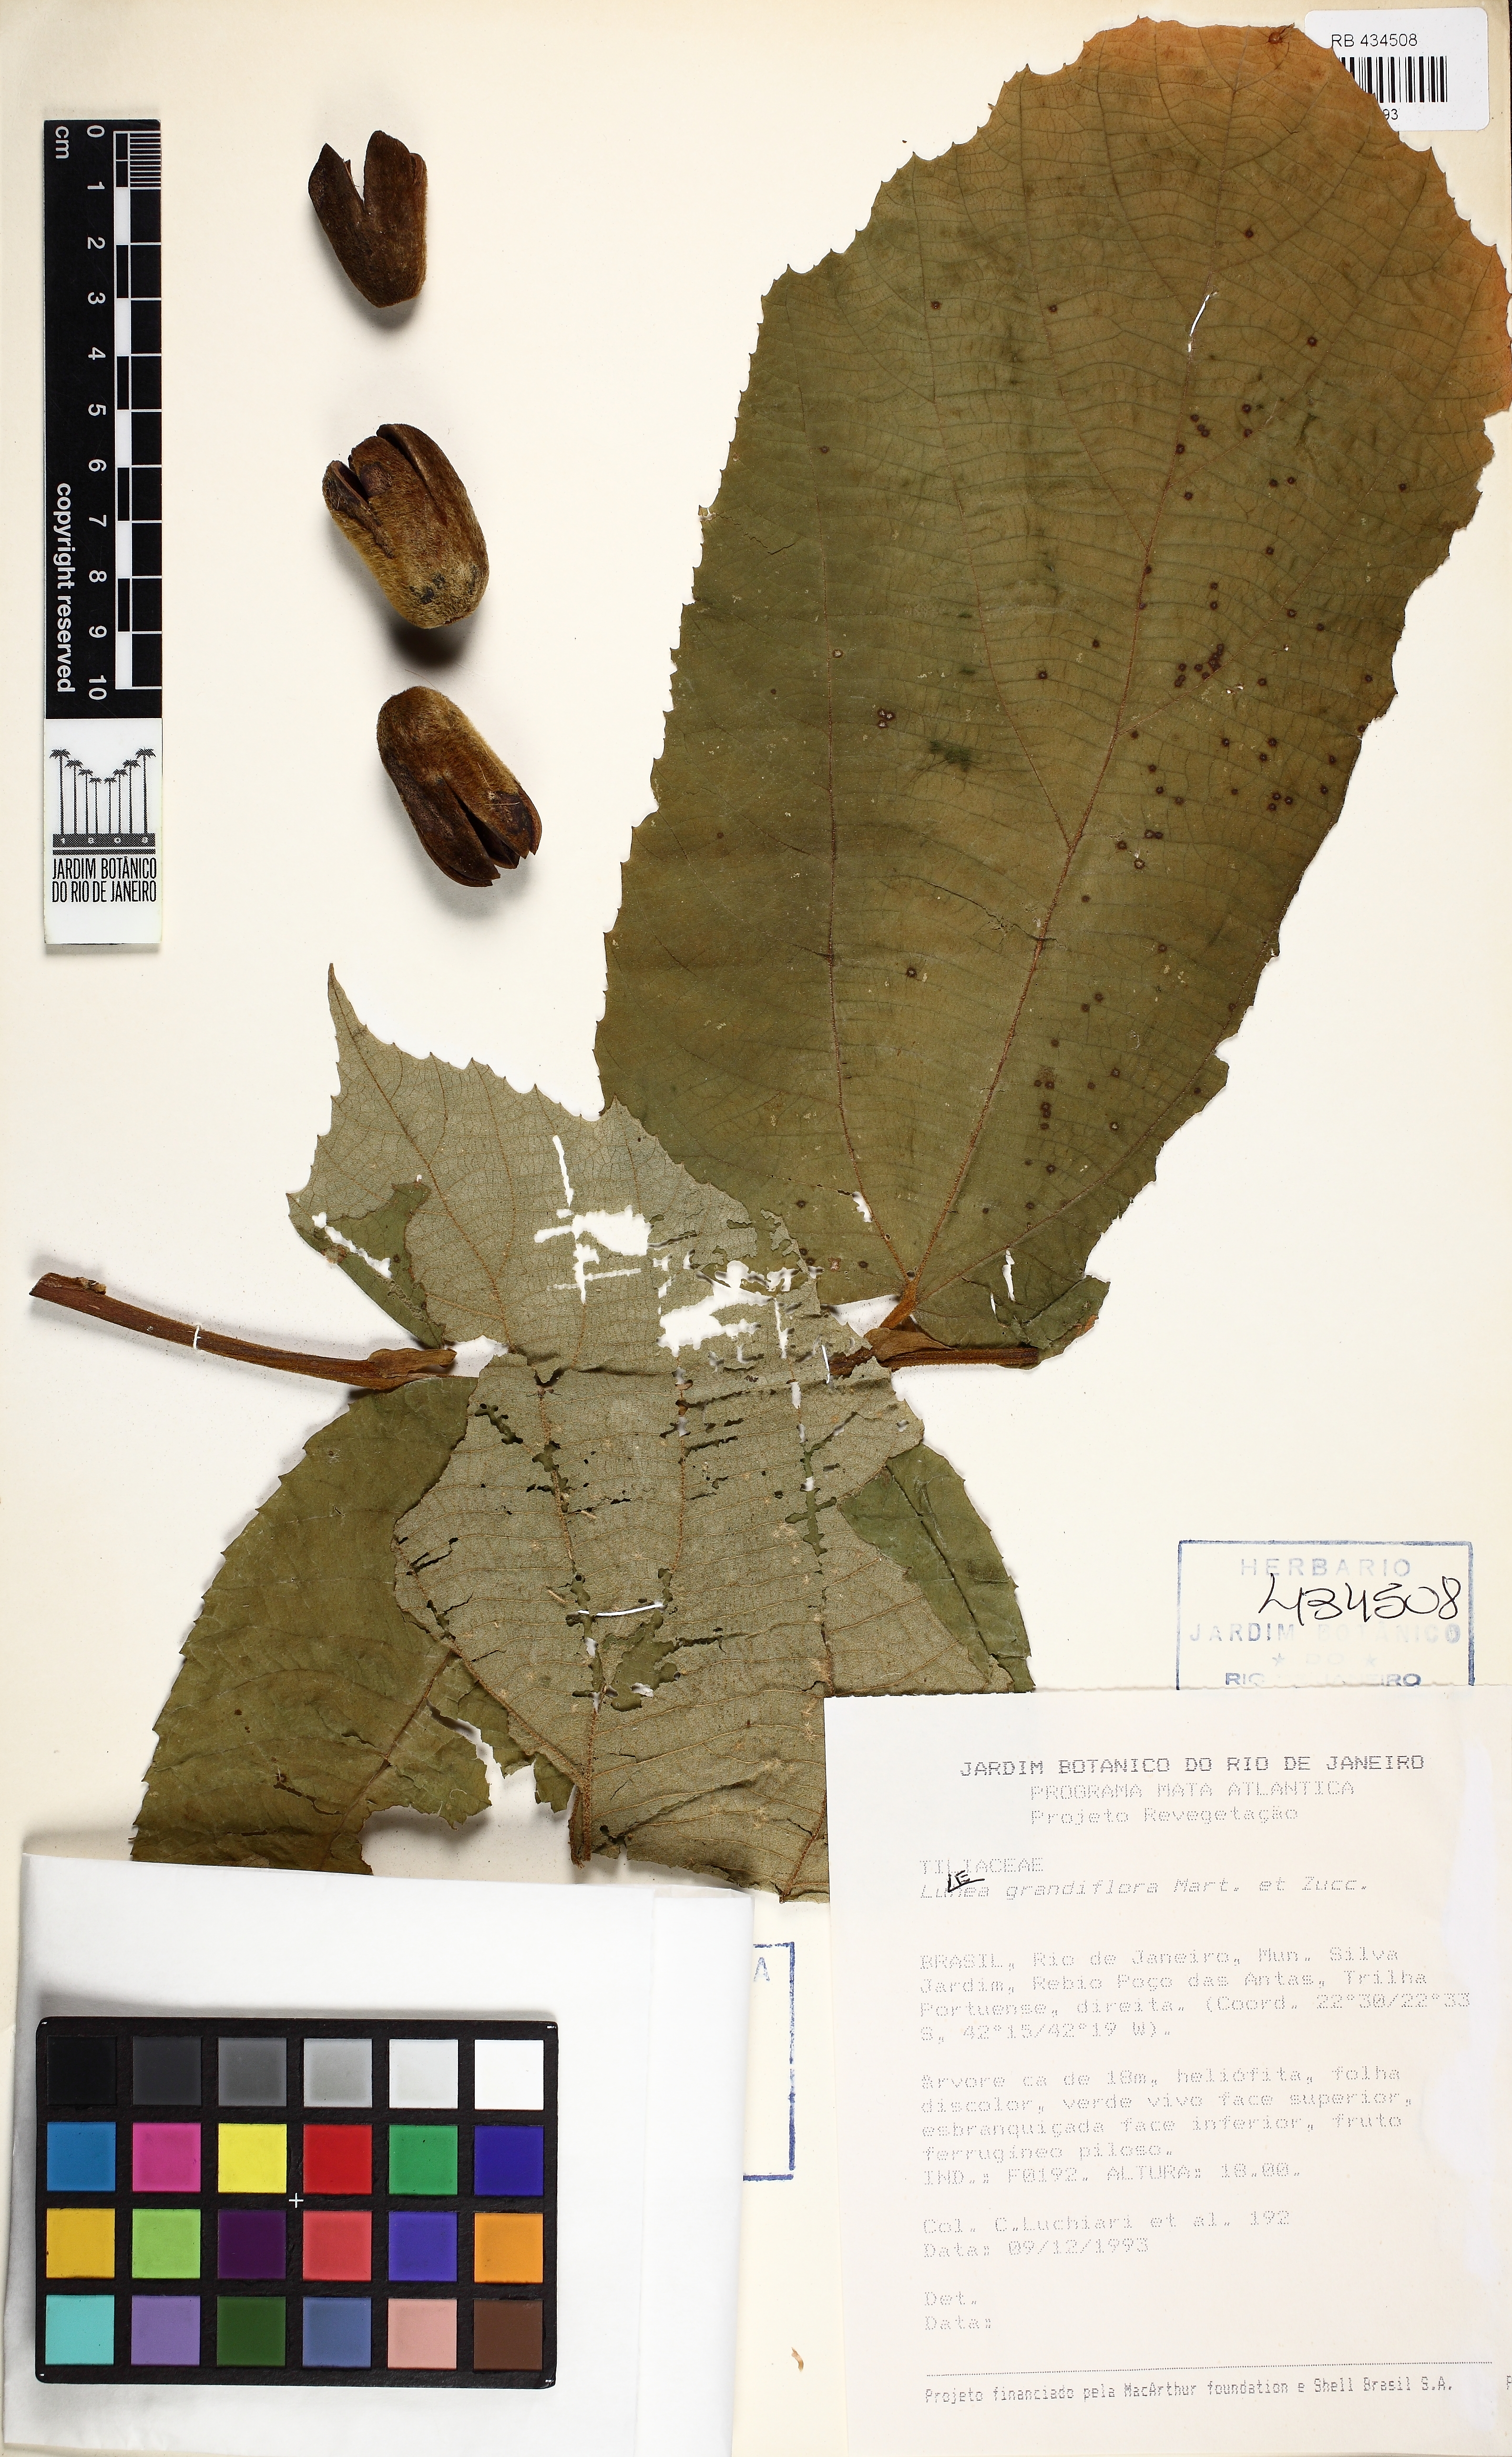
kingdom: Plantae
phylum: Tracheophyta
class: Magnoliopsida
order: Malvales
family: Malvaceae
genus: Luehea
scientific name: Luehea speciosa
